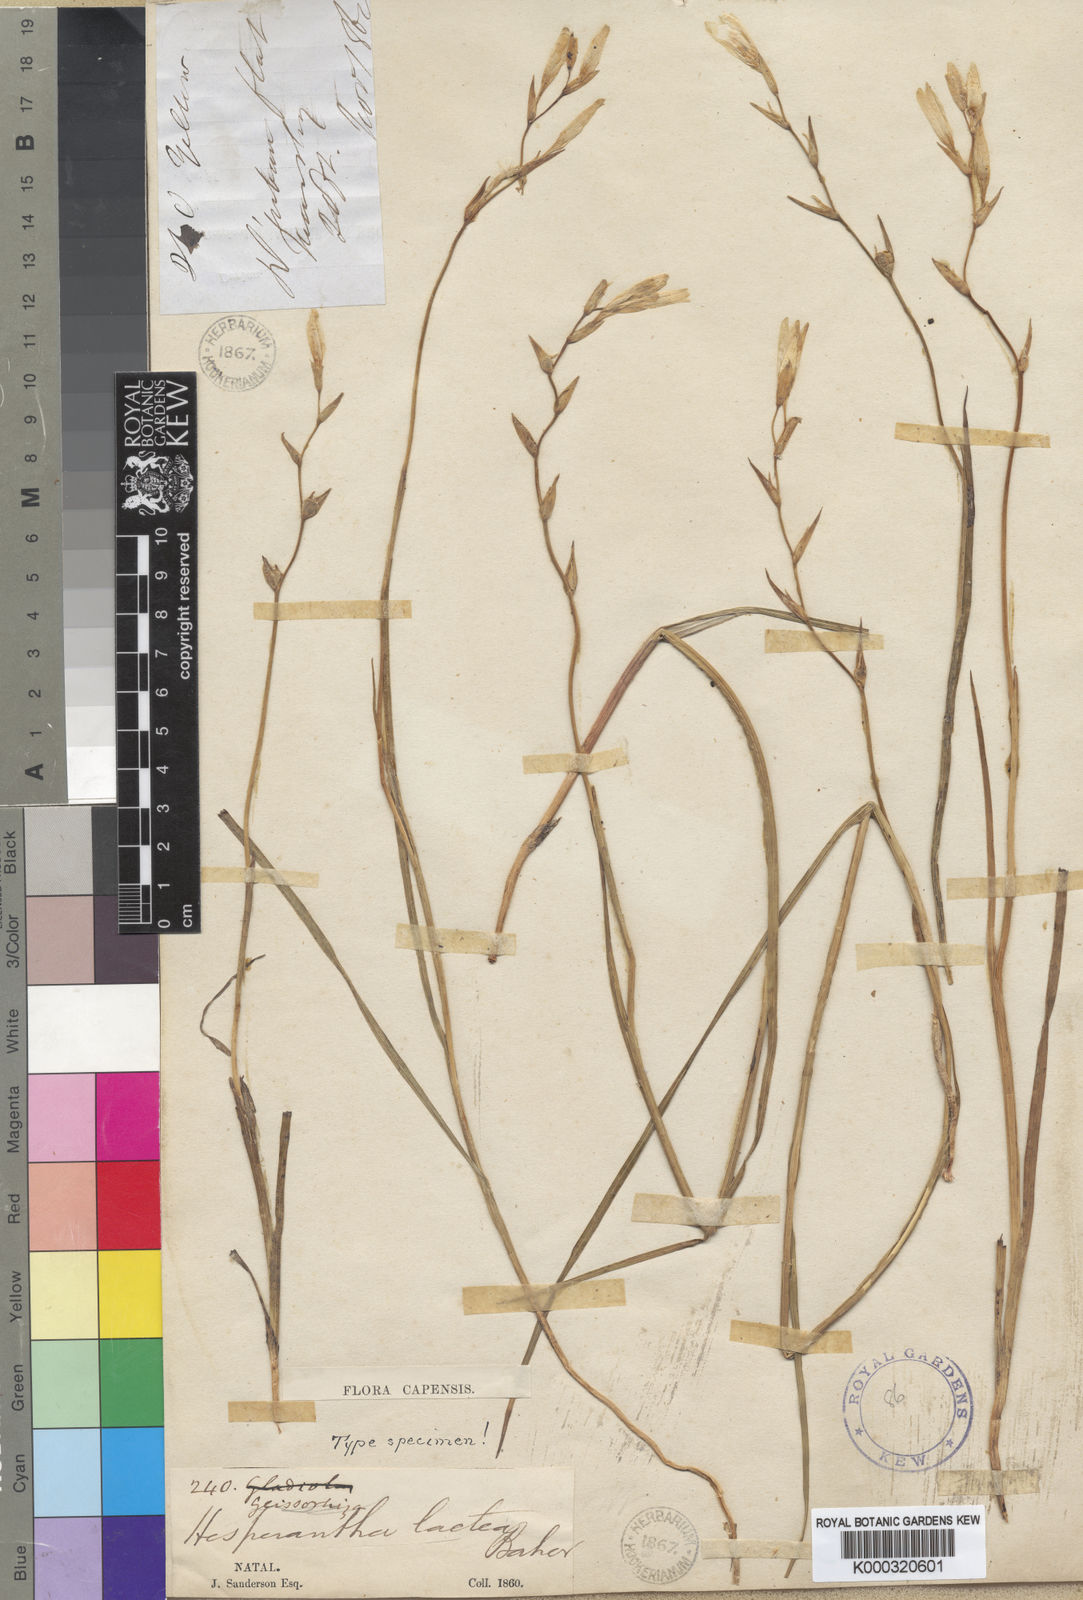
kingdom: Plantae
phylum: Tracheophyta
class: Liliopsida
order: Asparagales
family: Iridaceae
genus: Hesperantha
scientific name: Hesperantha lactea
